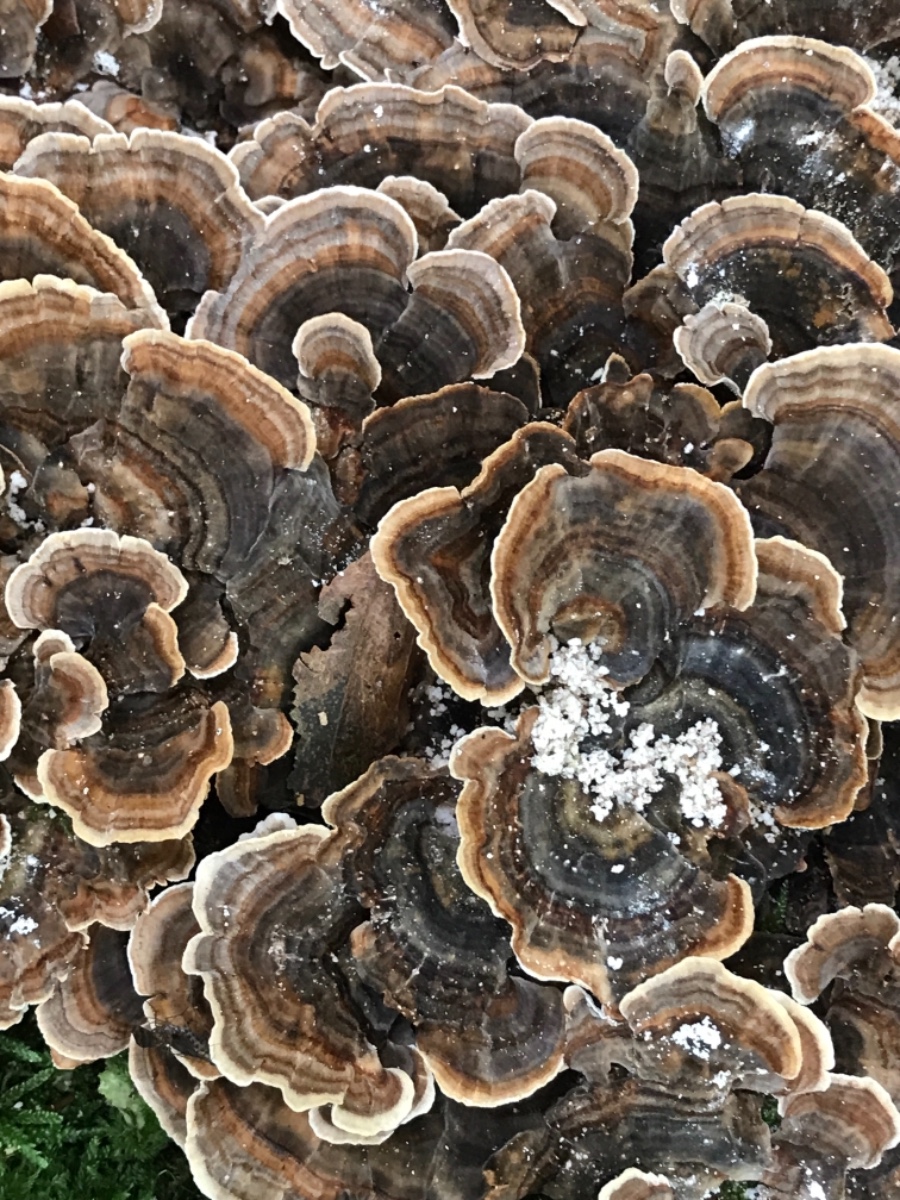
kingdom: Fungi
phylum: Basidiomycota
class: Agaricomycetes
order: Polyporales
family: Polyporaceae
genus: Trametes
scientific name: Trametes versicolor
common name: broget læderporesvamp
